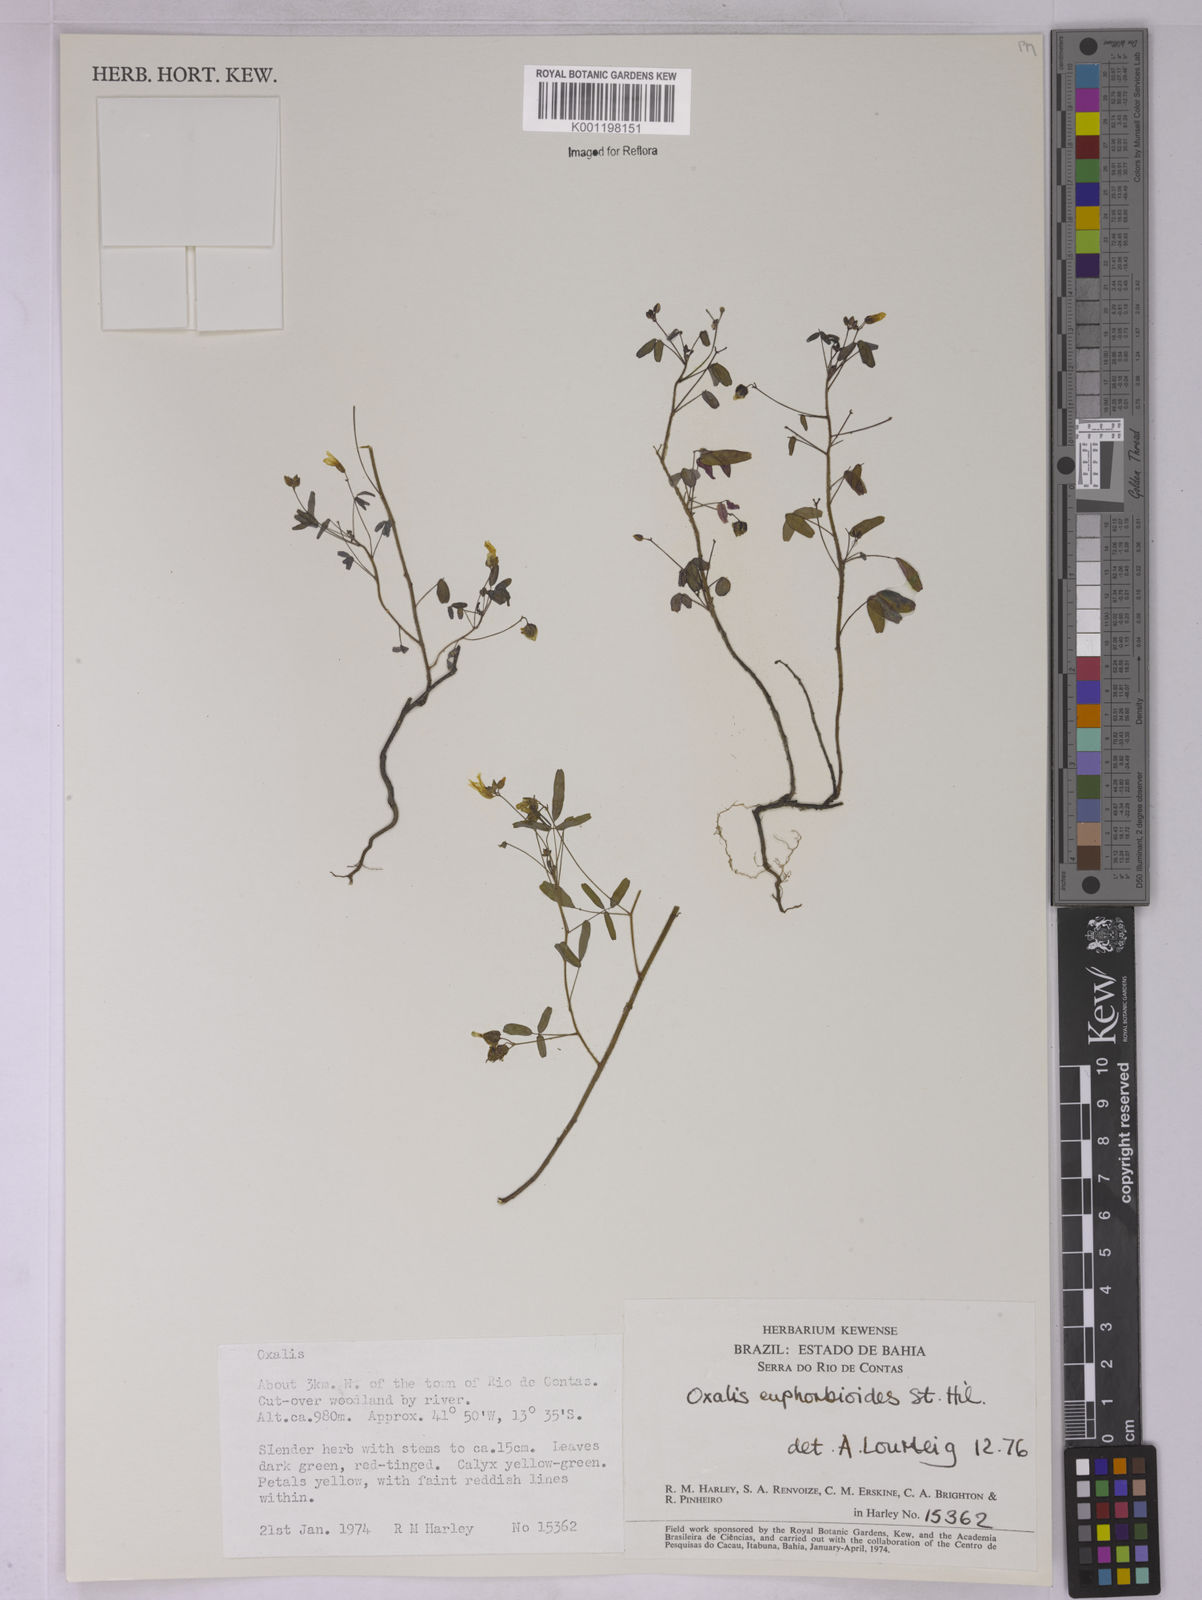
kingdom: Plantae
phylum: Tracheophyta
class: Magnoliopsida
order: Oxalidales
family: Oxalidaceae
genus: Oxalis
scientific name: Oxalis divaricata
